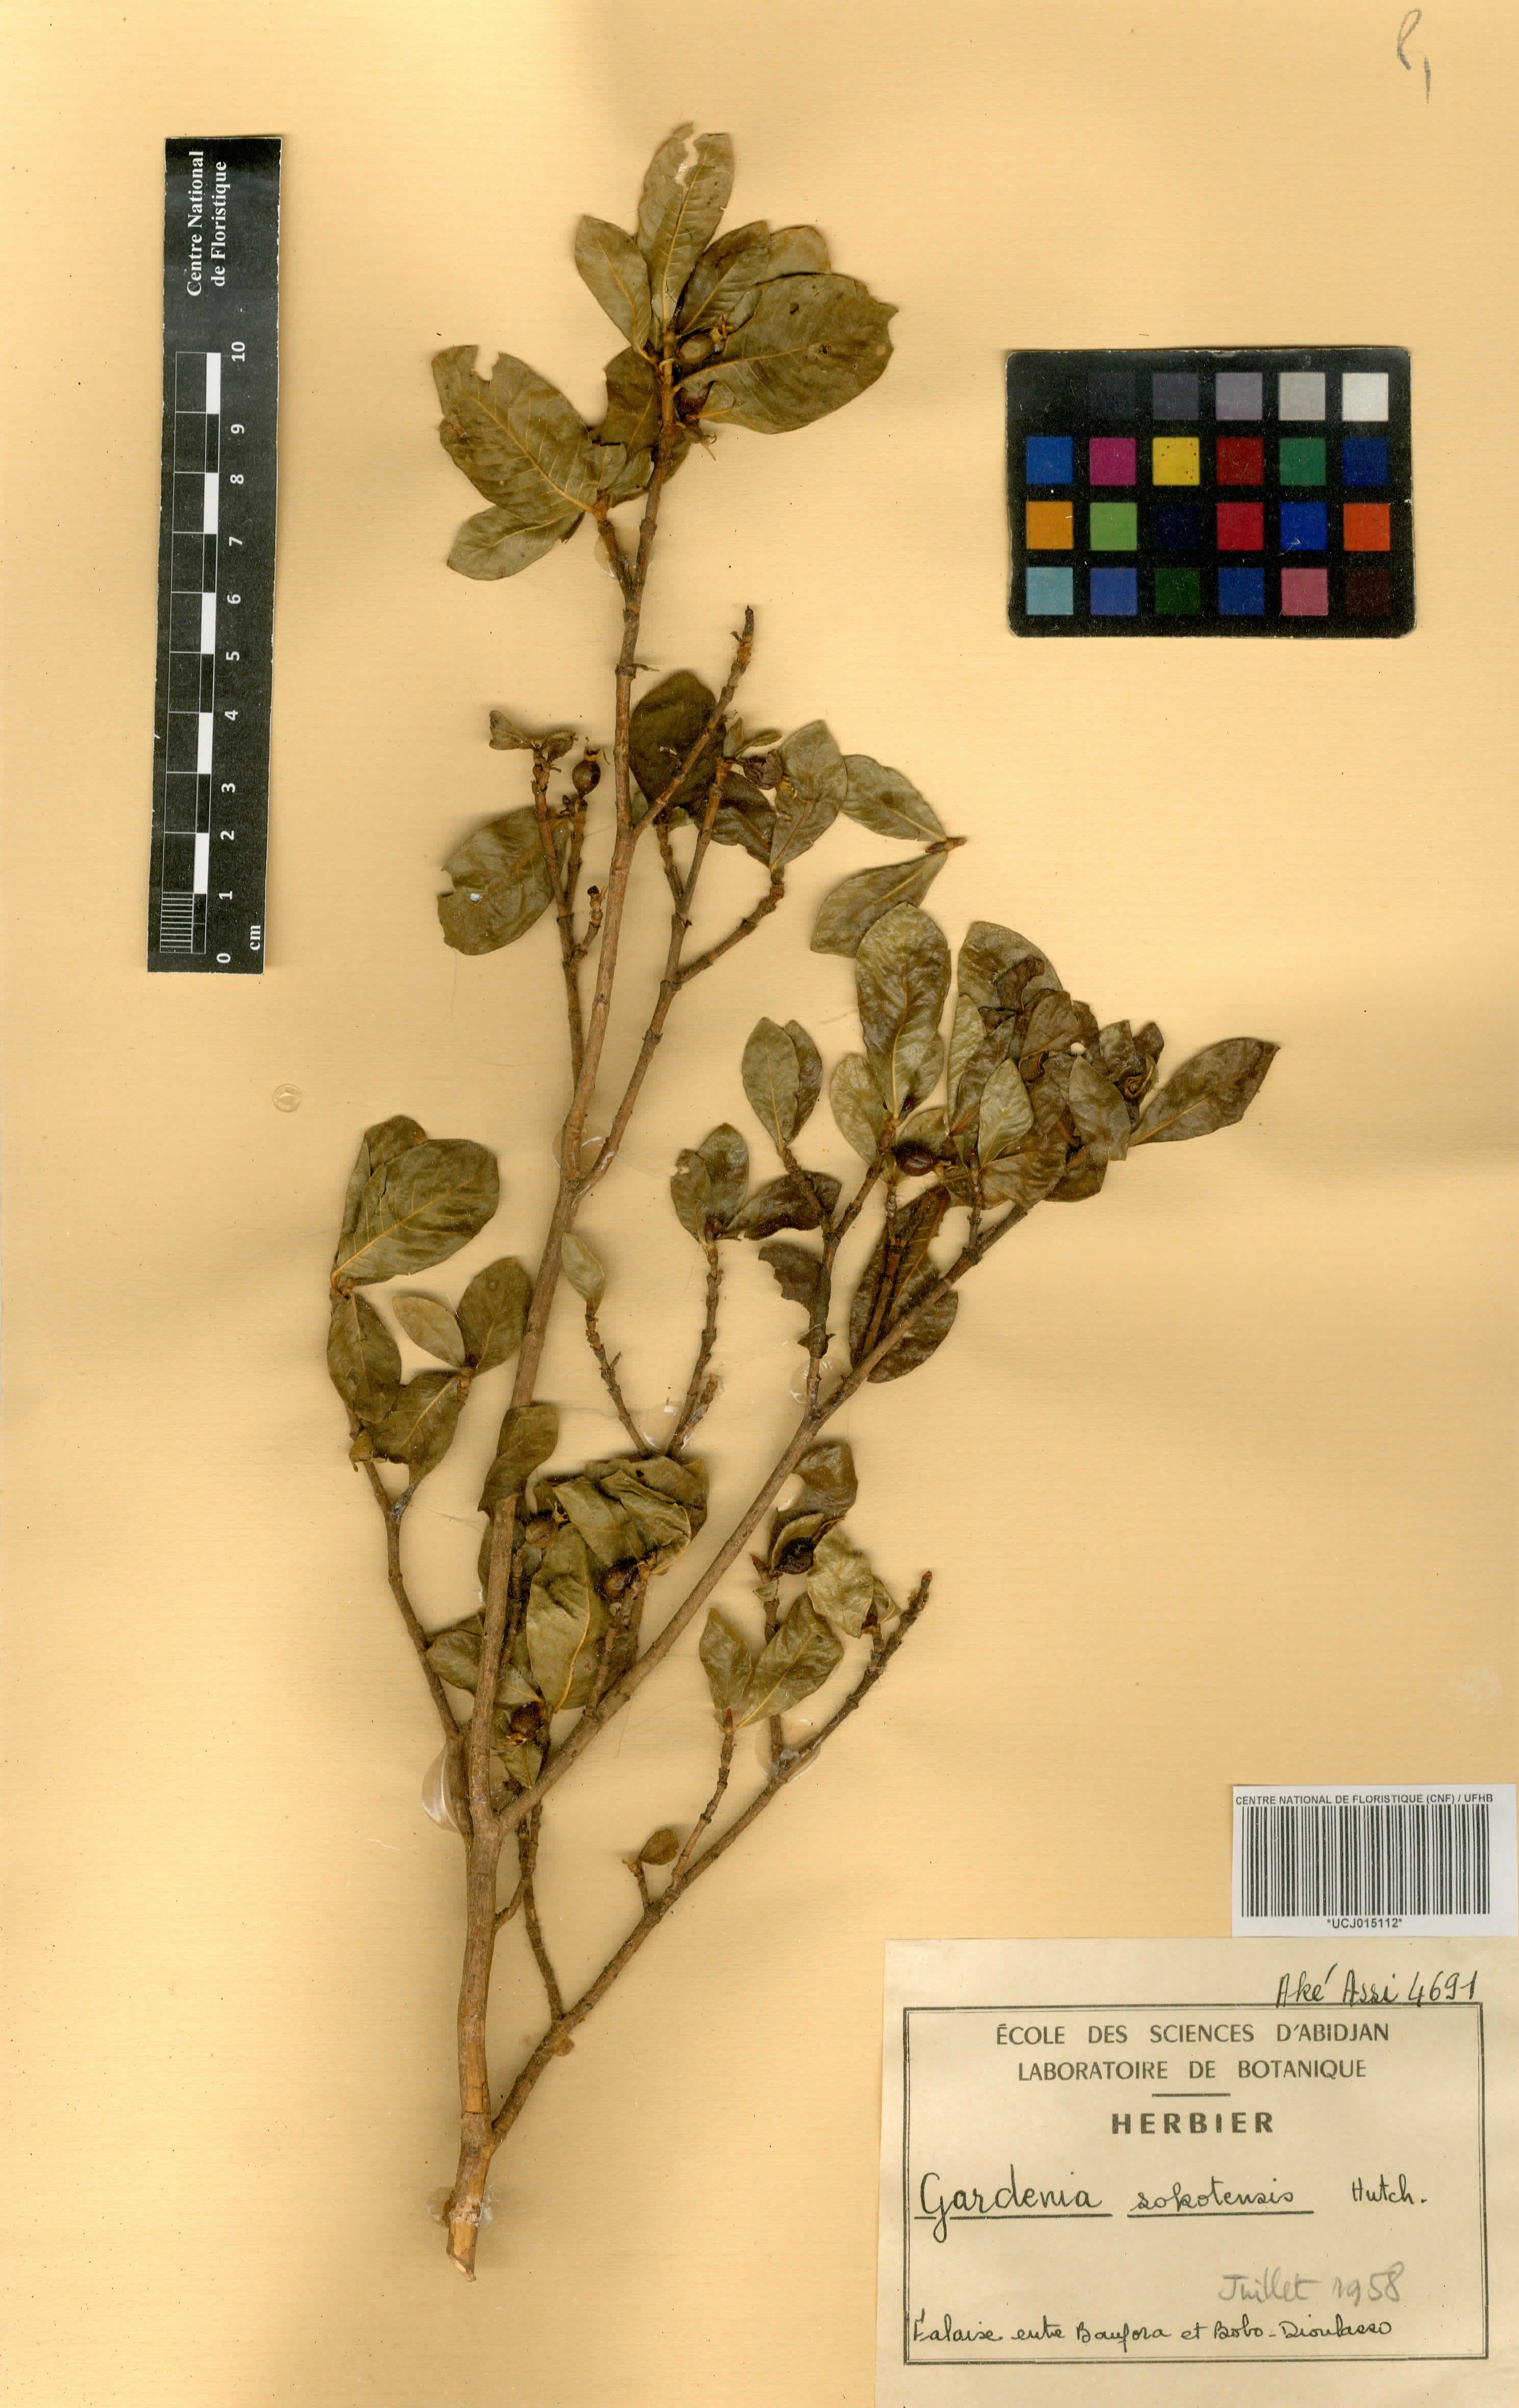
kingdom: Plantae
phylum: Tracheophyta
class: Magnoliopsida
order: Gentianales
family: Rubiaceae
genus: Gardenia
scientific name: Gardenia sokotensis
